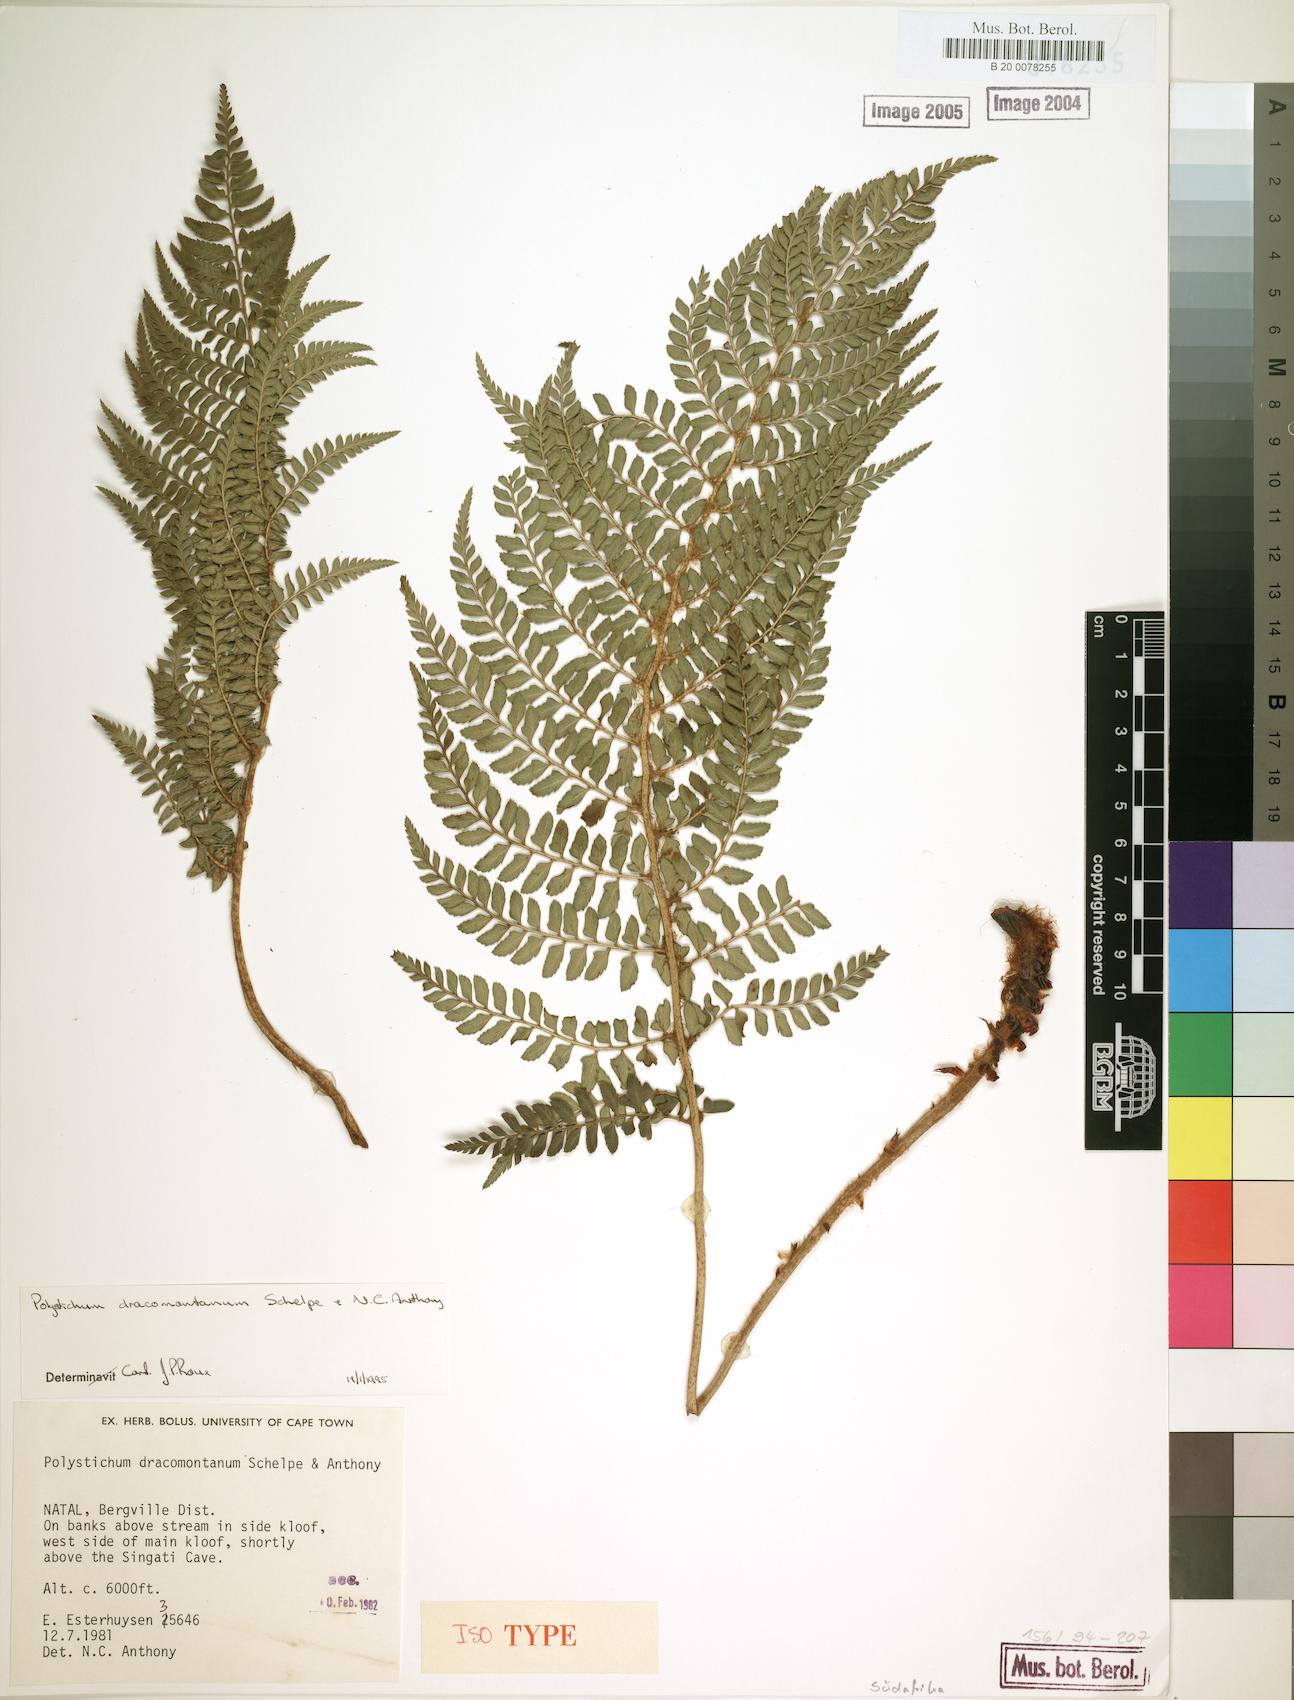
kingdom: Plantae
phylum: Tracheophyta
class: Polypodiopsida
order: Polypodiales
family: Dryopteridaceae
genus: Polystichum
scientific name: Polystichum dracomontanum
